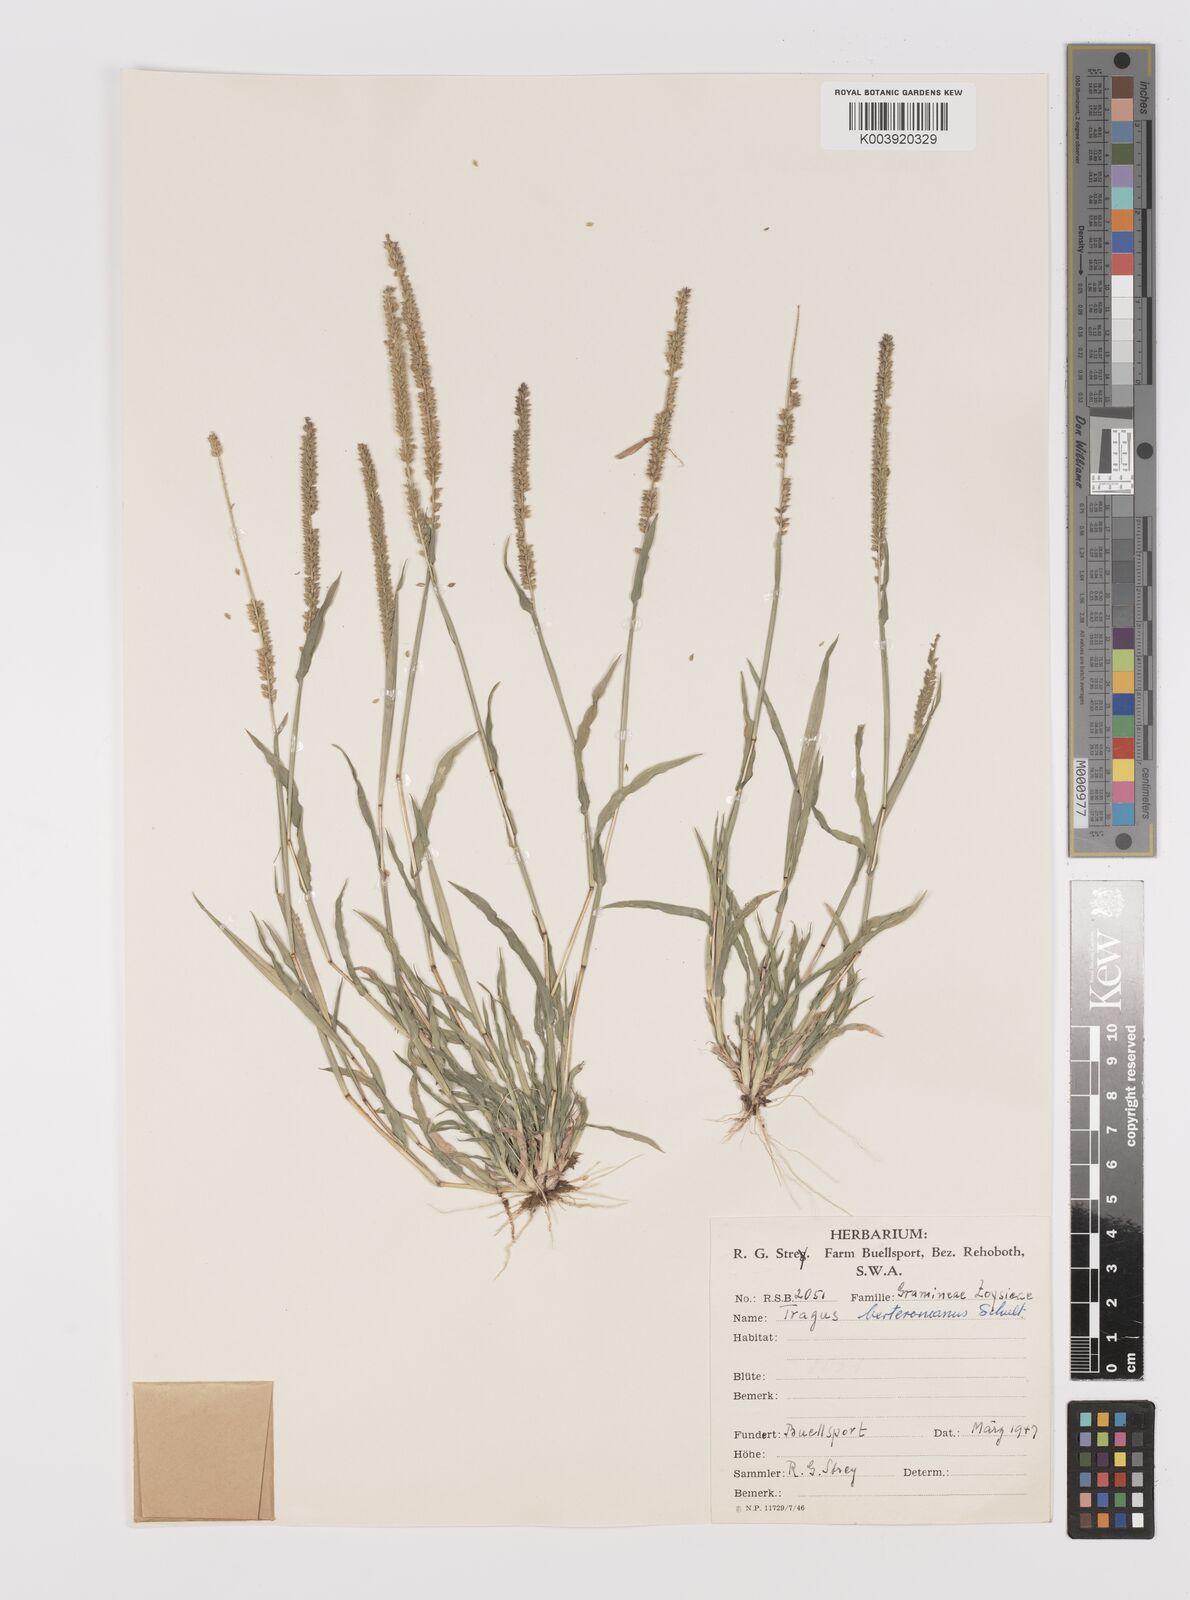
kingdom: Plantae
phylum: Tracheophyta
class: Liliopsida
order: Poales
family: Poaceae
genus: Tragus
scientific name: Tragus berteronianus
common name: African bur-grass
